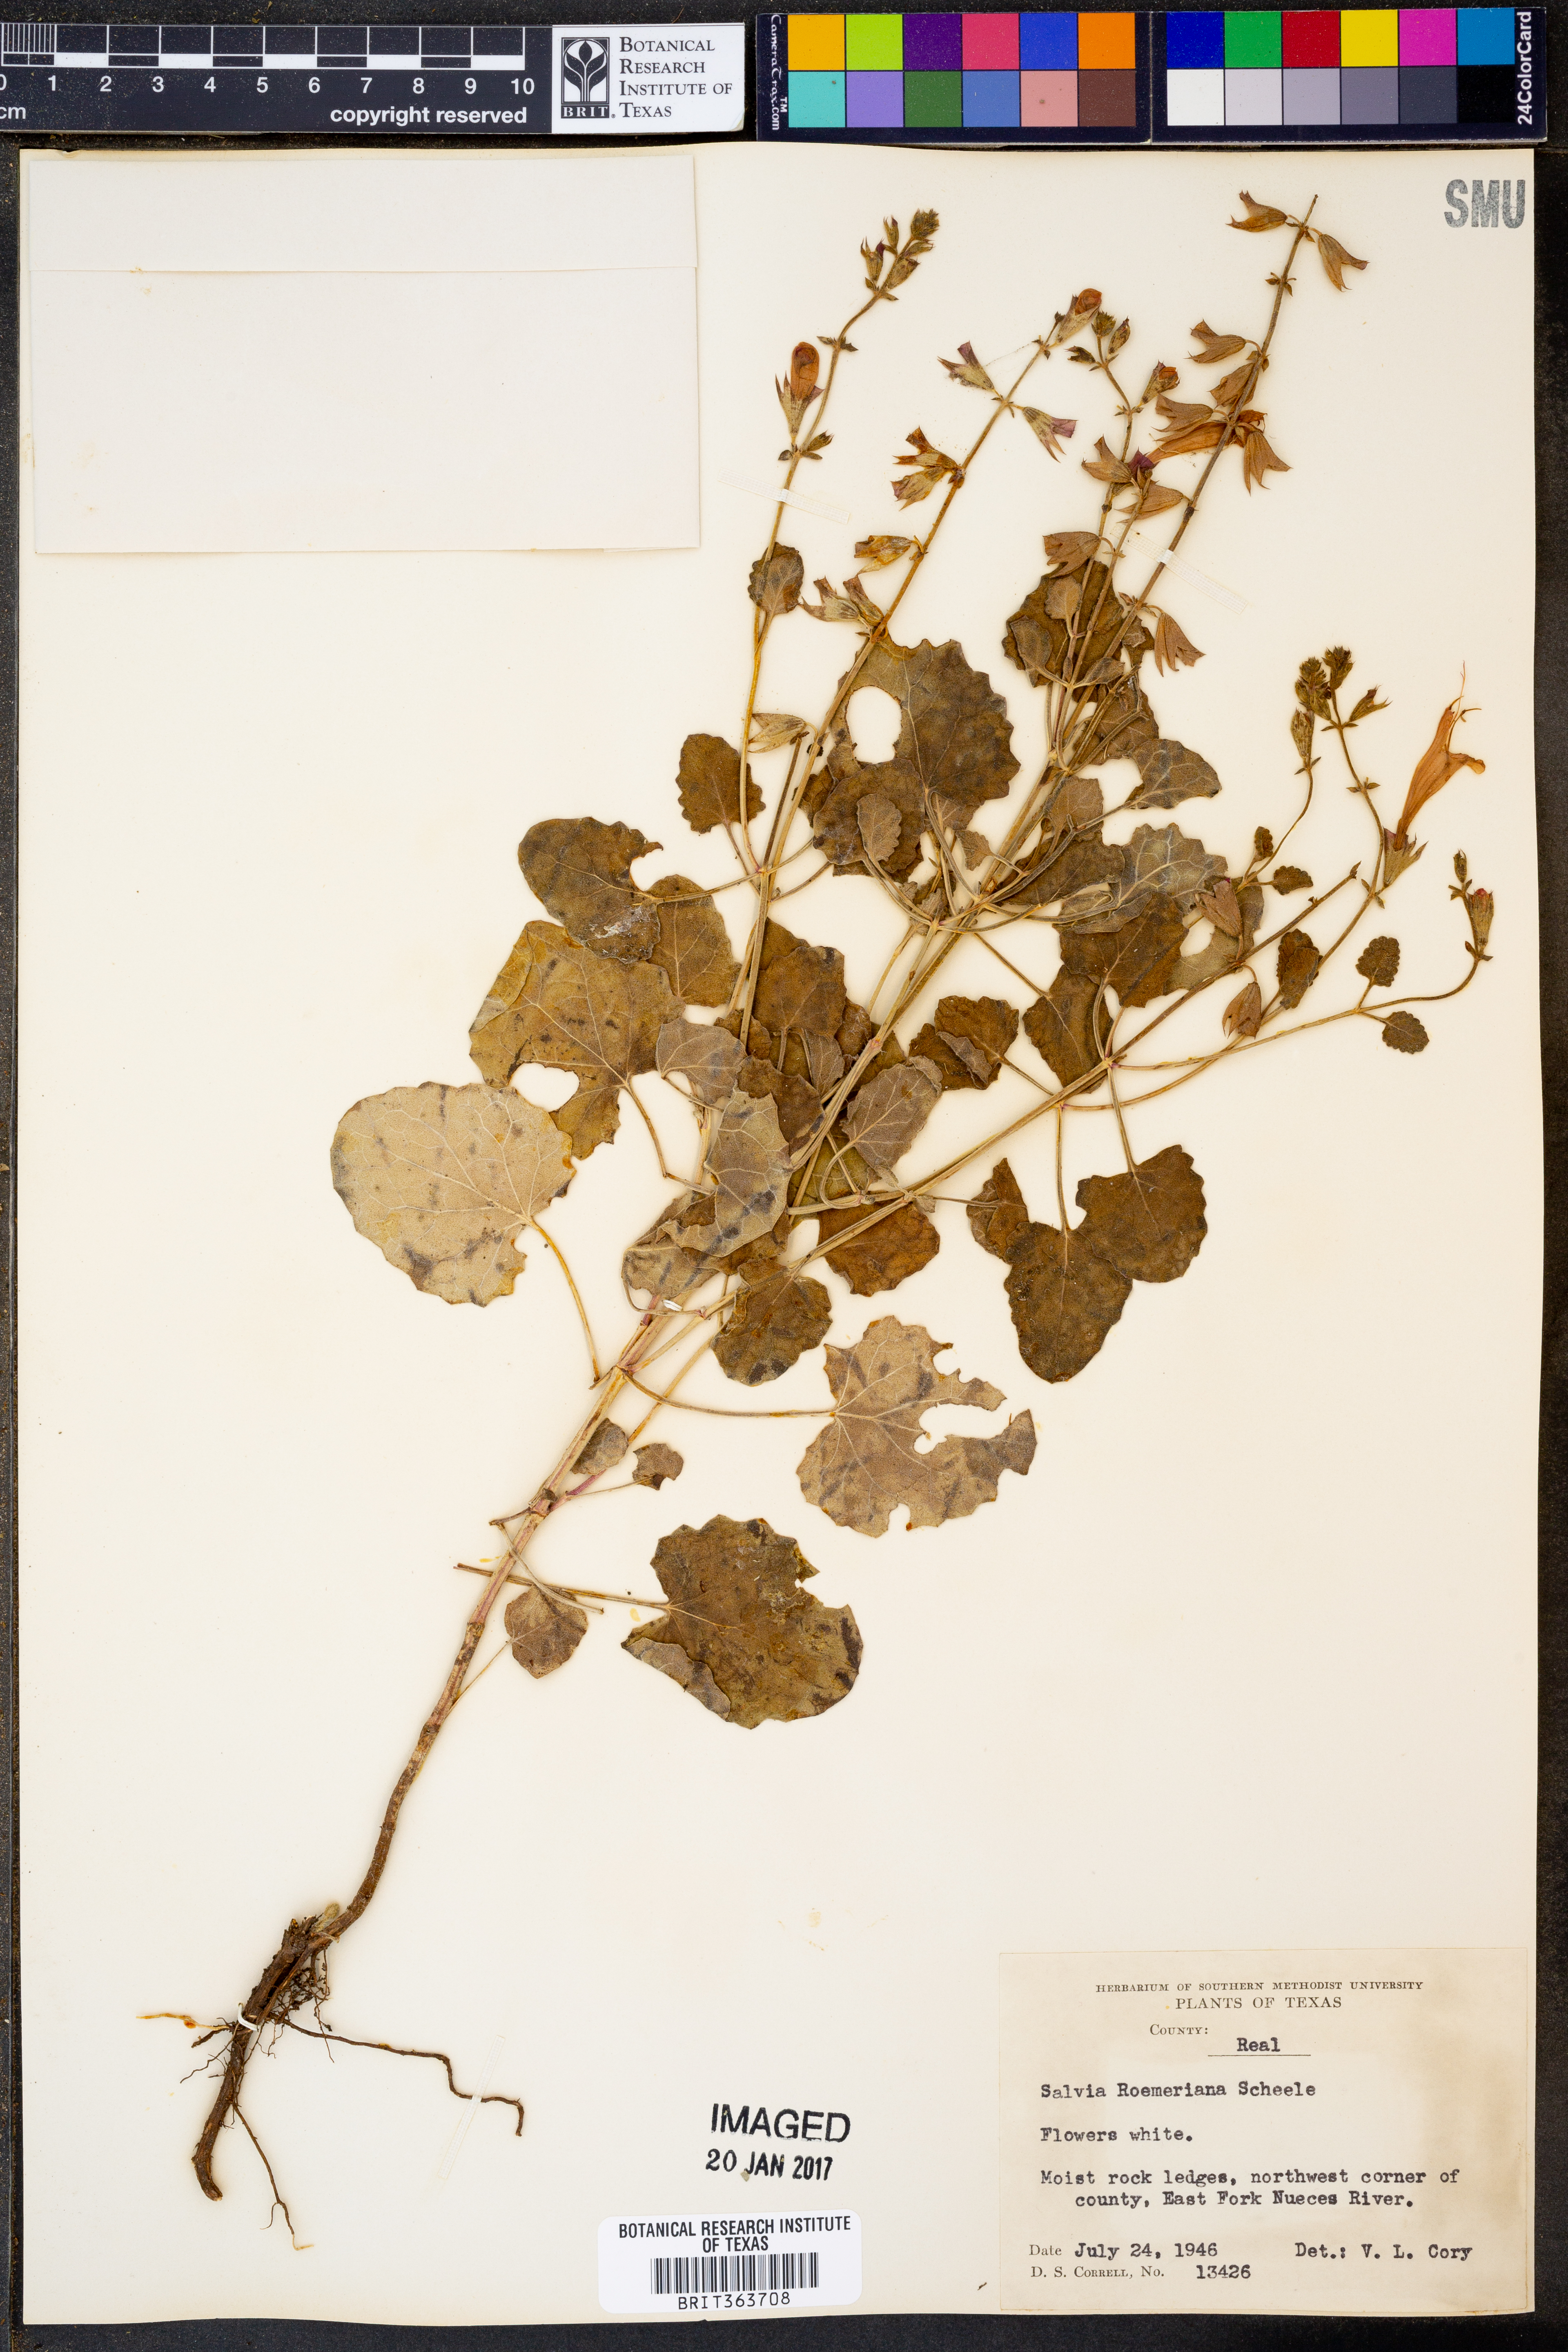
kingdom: Plantae
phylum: Tracheophyta
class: Magnoliopsida
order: Lamiales
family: Lamiaceae
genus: Salvia
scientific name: Salvia roemeriana
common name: Cedar sage
